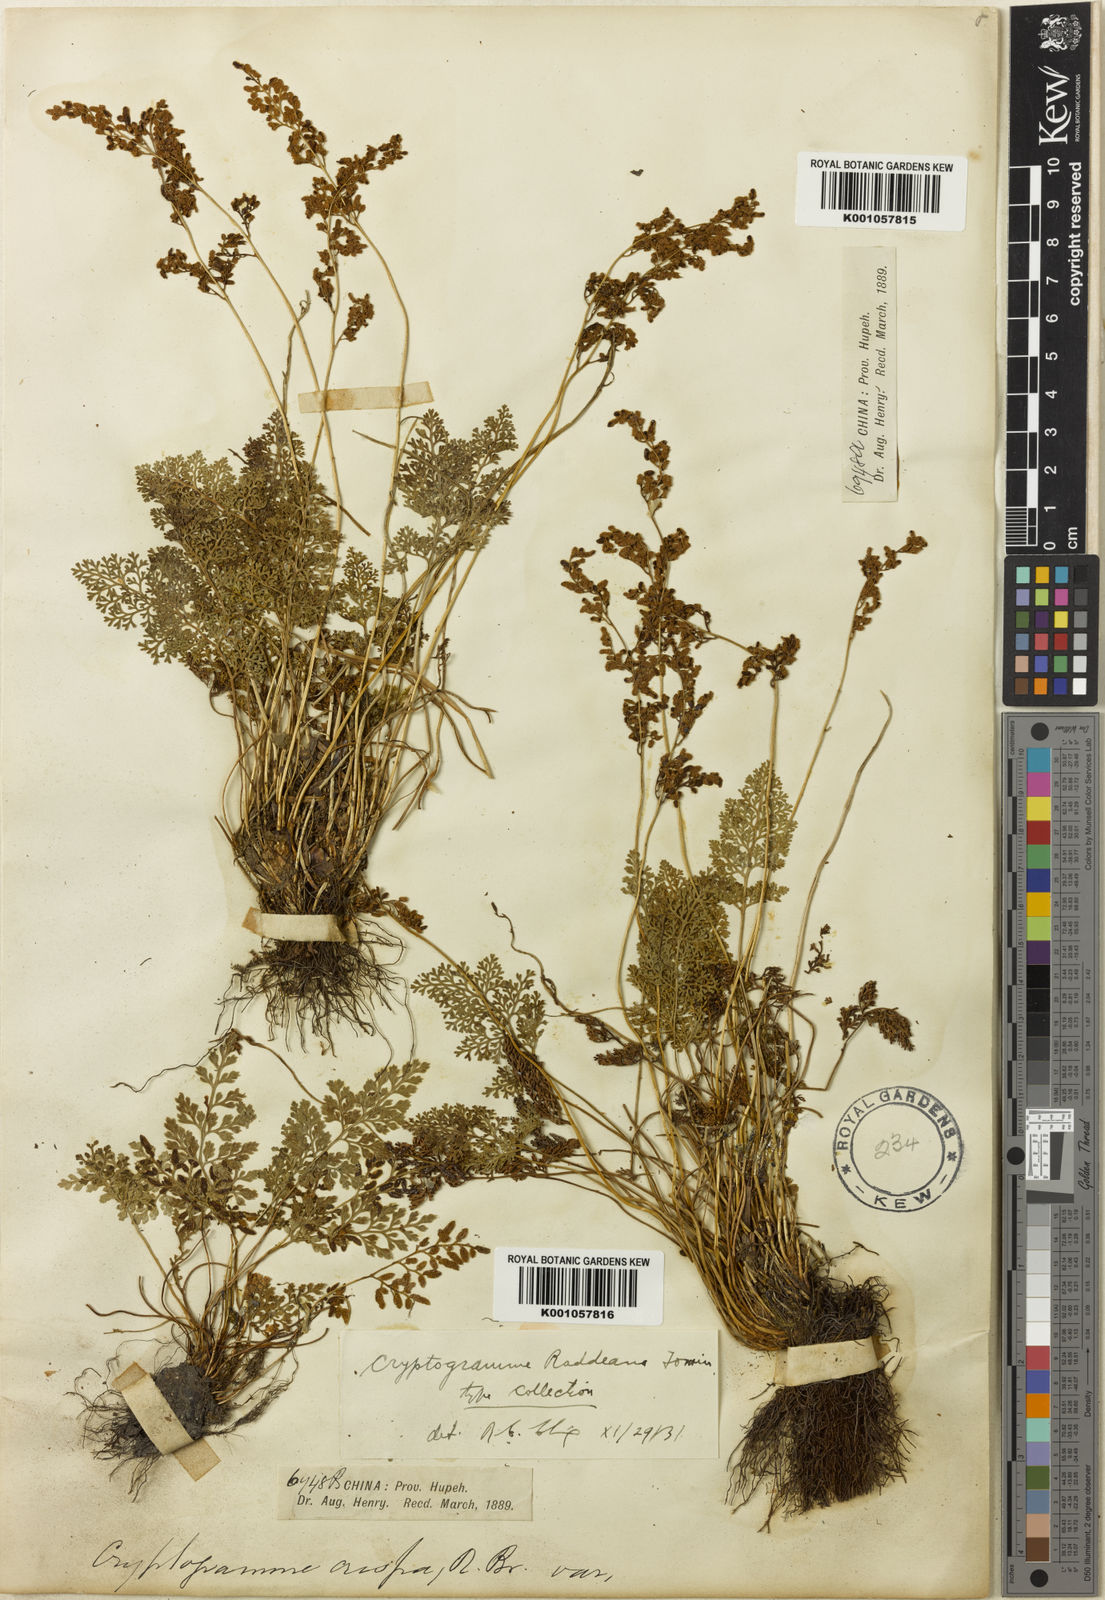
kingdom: Plantae
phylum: Tracheophyta
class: Polypodiopsida
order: Polypodiales
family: Pteridaceae
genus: Cryptogramma
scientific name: Cryptogramma brunoniana
